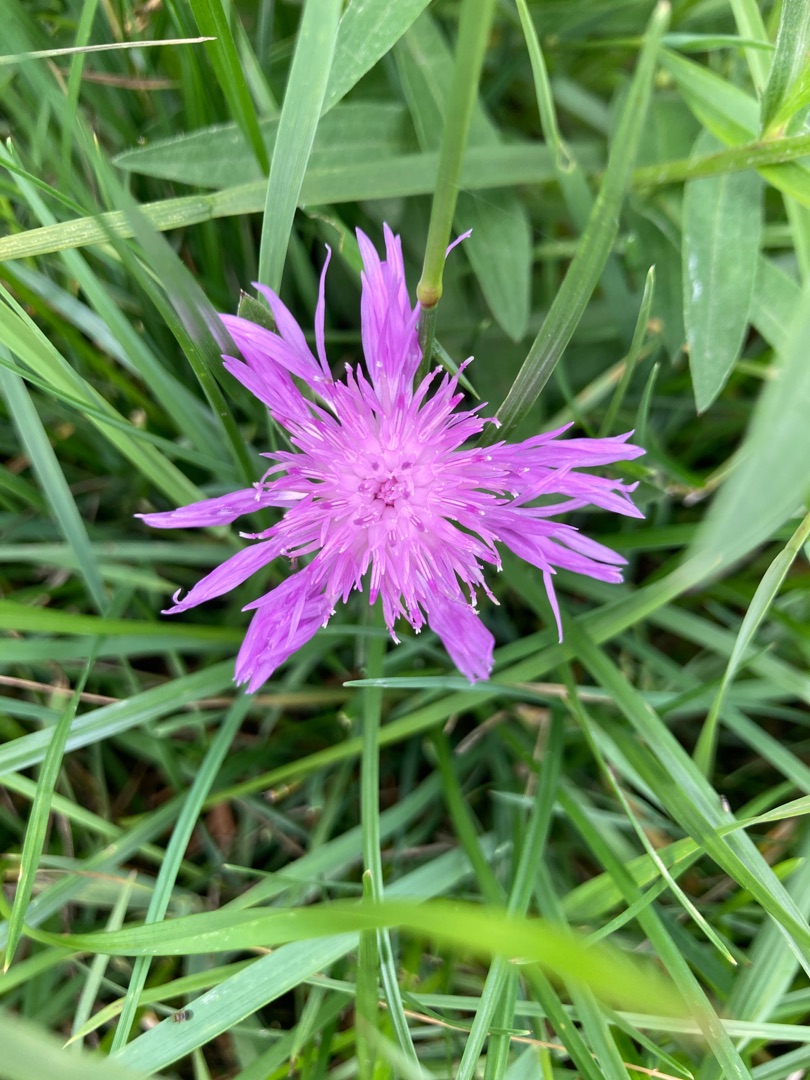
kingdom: Plantae
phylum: Tracheophyta
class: Magnoliopsida
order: Asterales
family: Asteraceae
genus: Centaurea
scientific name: Centaurea
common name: Knopurtslægten
